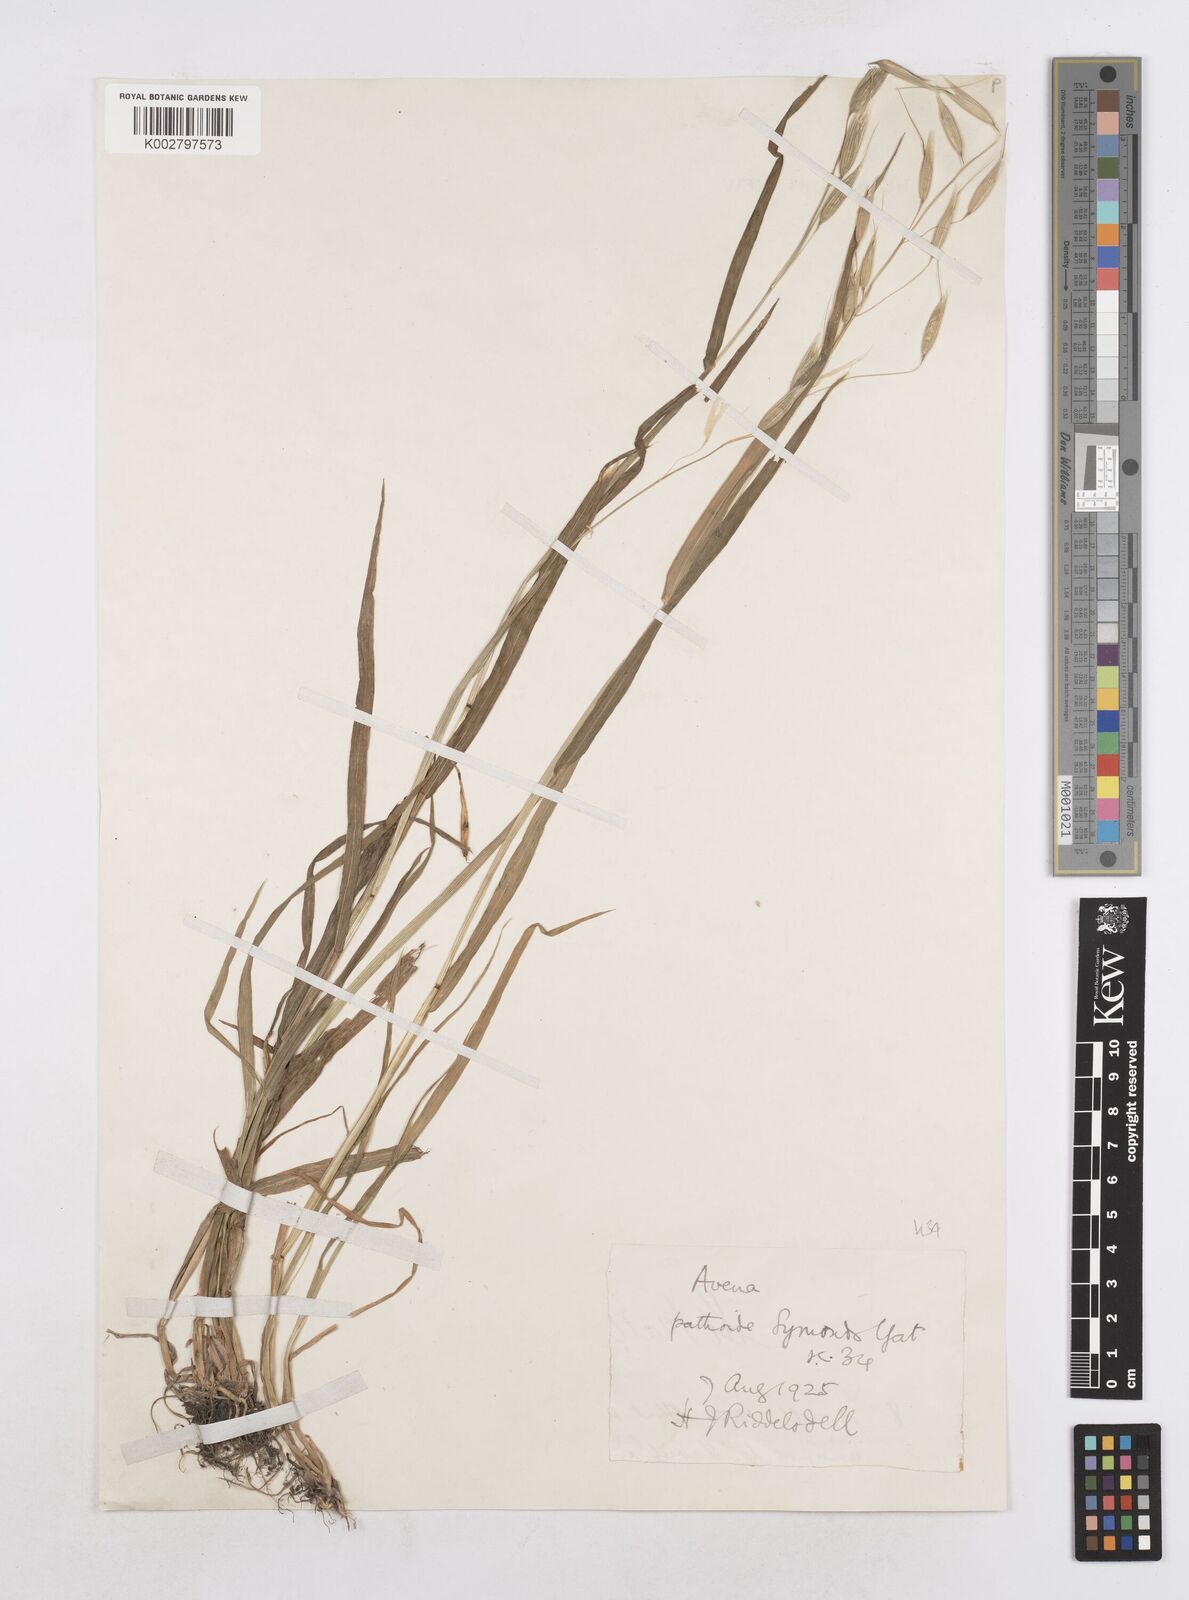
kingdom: Plantae
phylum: Tracheophyta
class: Liliopsida
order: Poales
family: Poaceae
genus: Avena
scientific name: Avena sativa
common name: Oat
